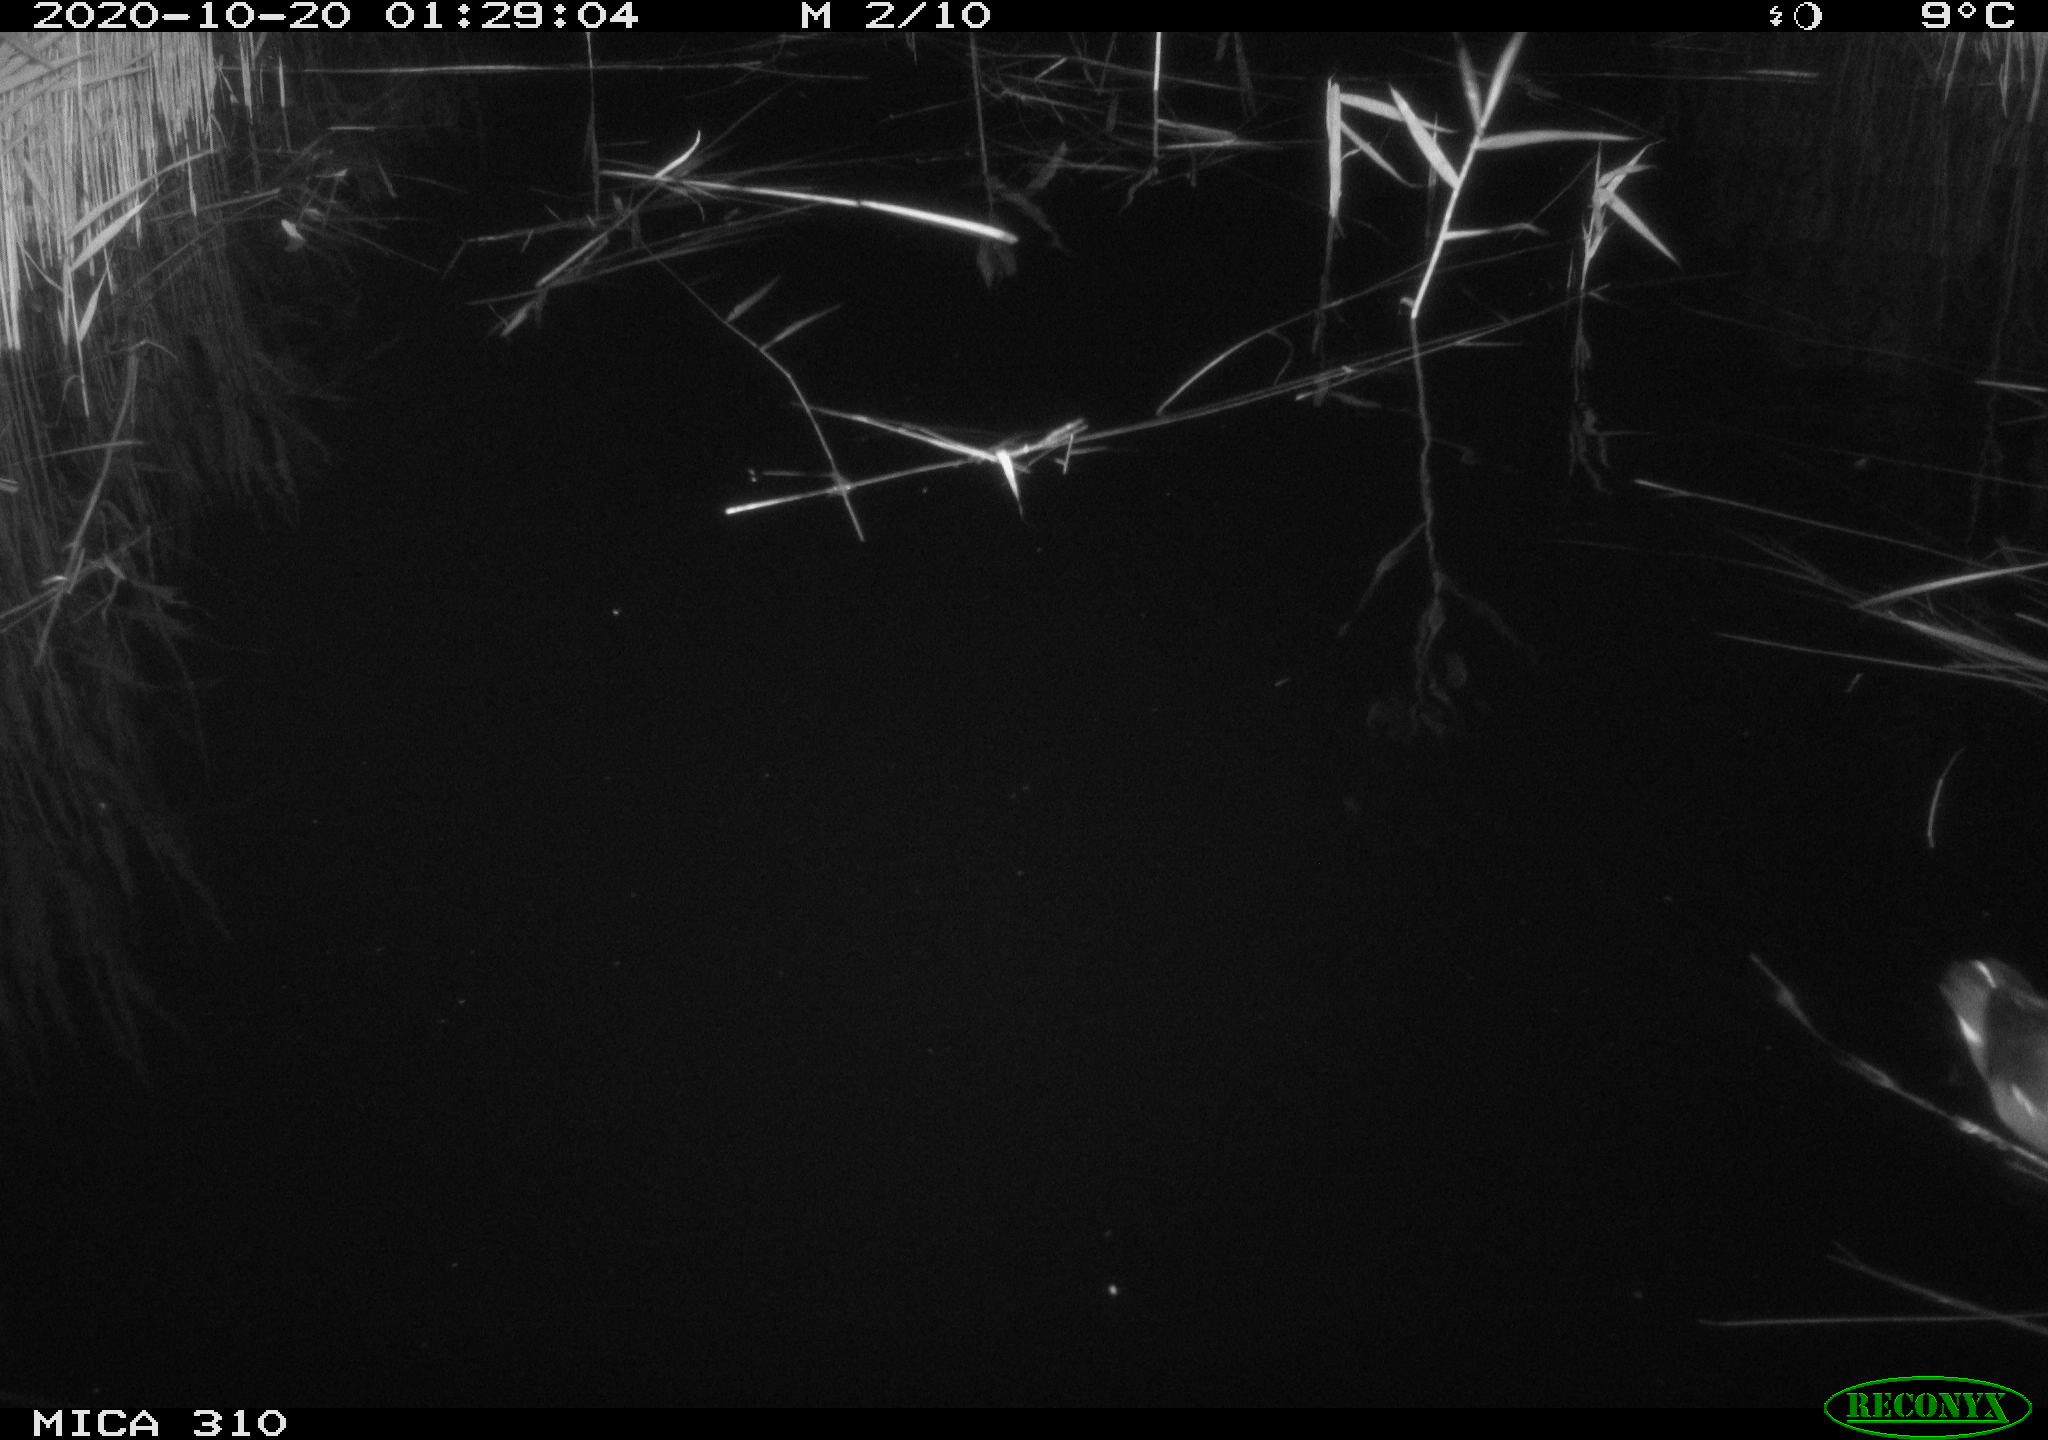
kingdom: Animalia
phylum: Chordata
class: Aves
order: Gruiformes
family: Rallidae
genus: Gallinula
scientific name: Gallinula chloropus
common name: Common moorhen
